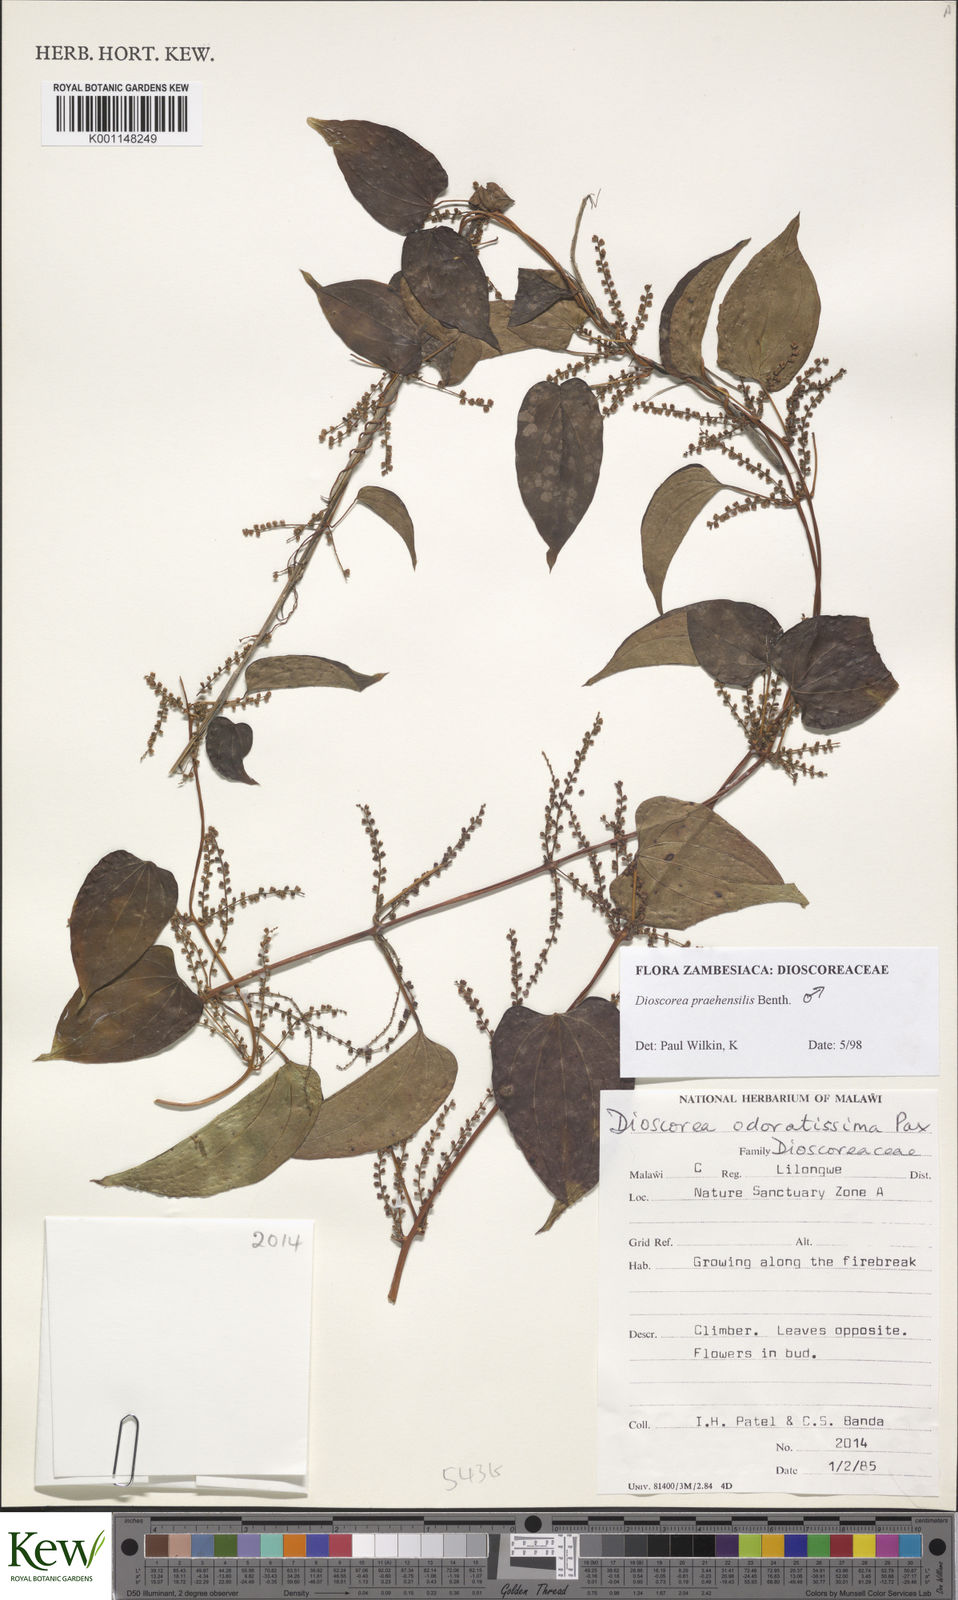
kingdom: Plantae
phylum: Tracheophyta
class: Liliopsida
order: Dioscoreales
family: Dioscoreaceae
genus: Dioscorea
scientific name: Dioscorea praehensilis
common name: Bush yam
